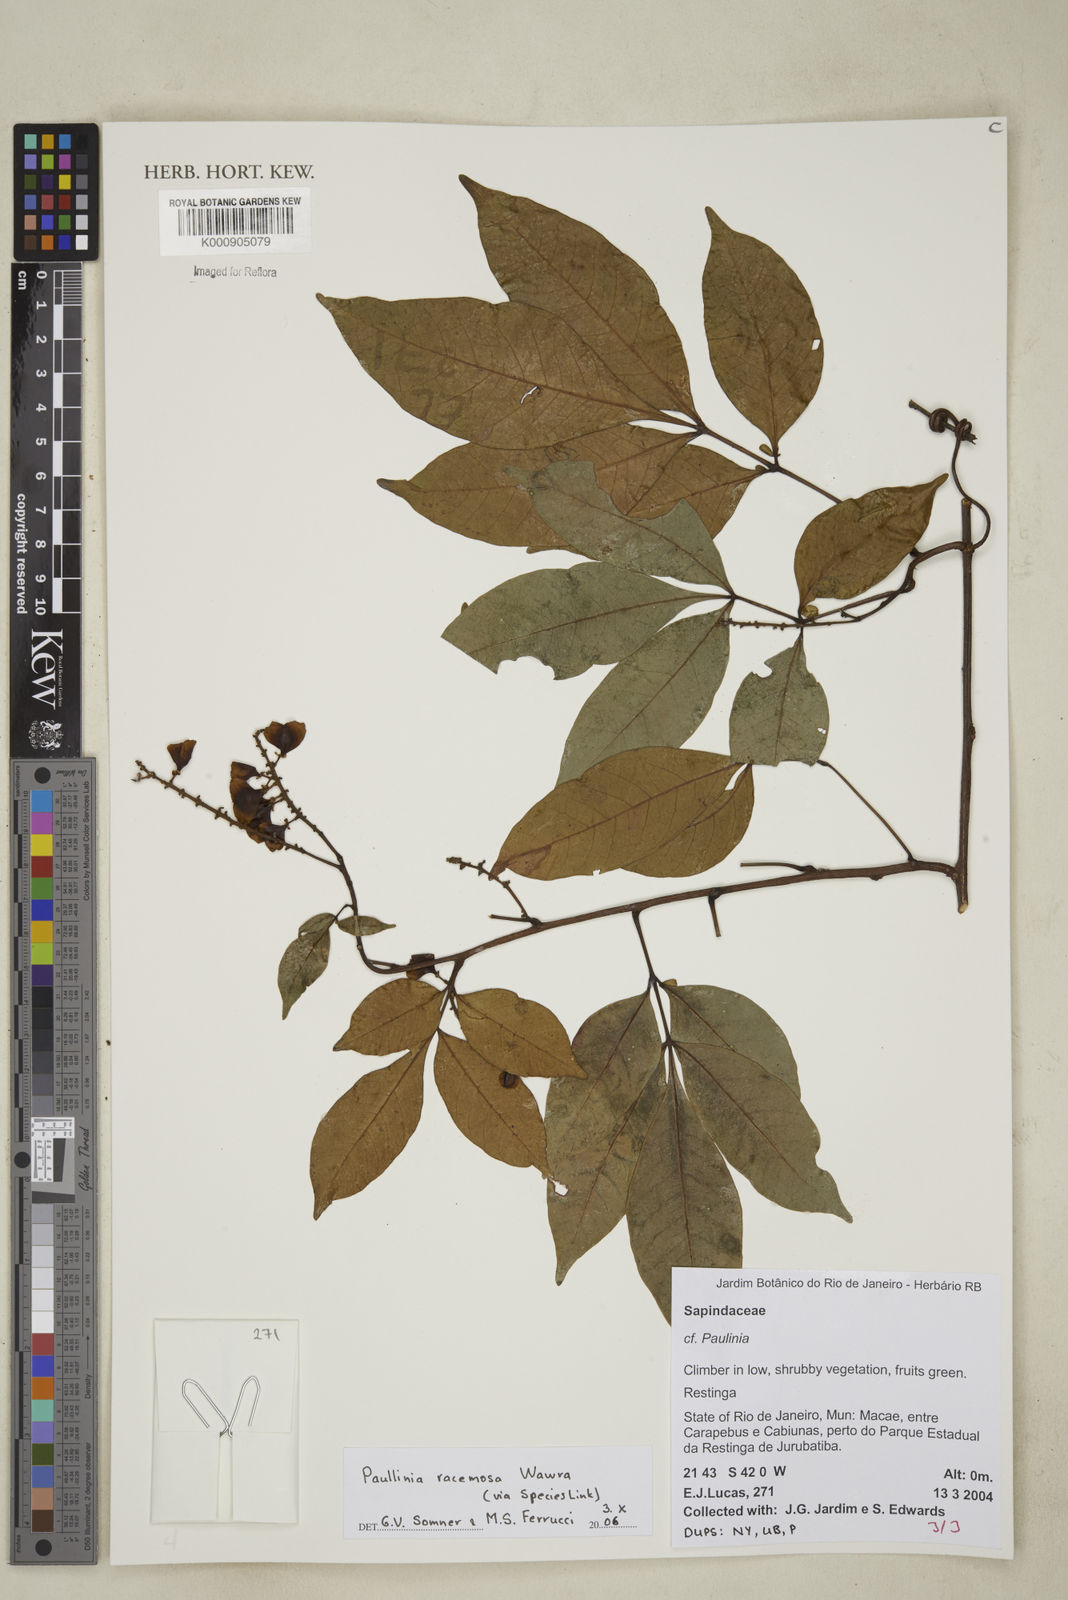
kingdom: Plantae
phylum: Tracheophyta
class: Magnoliopsida
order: Sapindales
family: Sapindaceae
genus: Paullinia
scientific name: Paullinia racemosa
